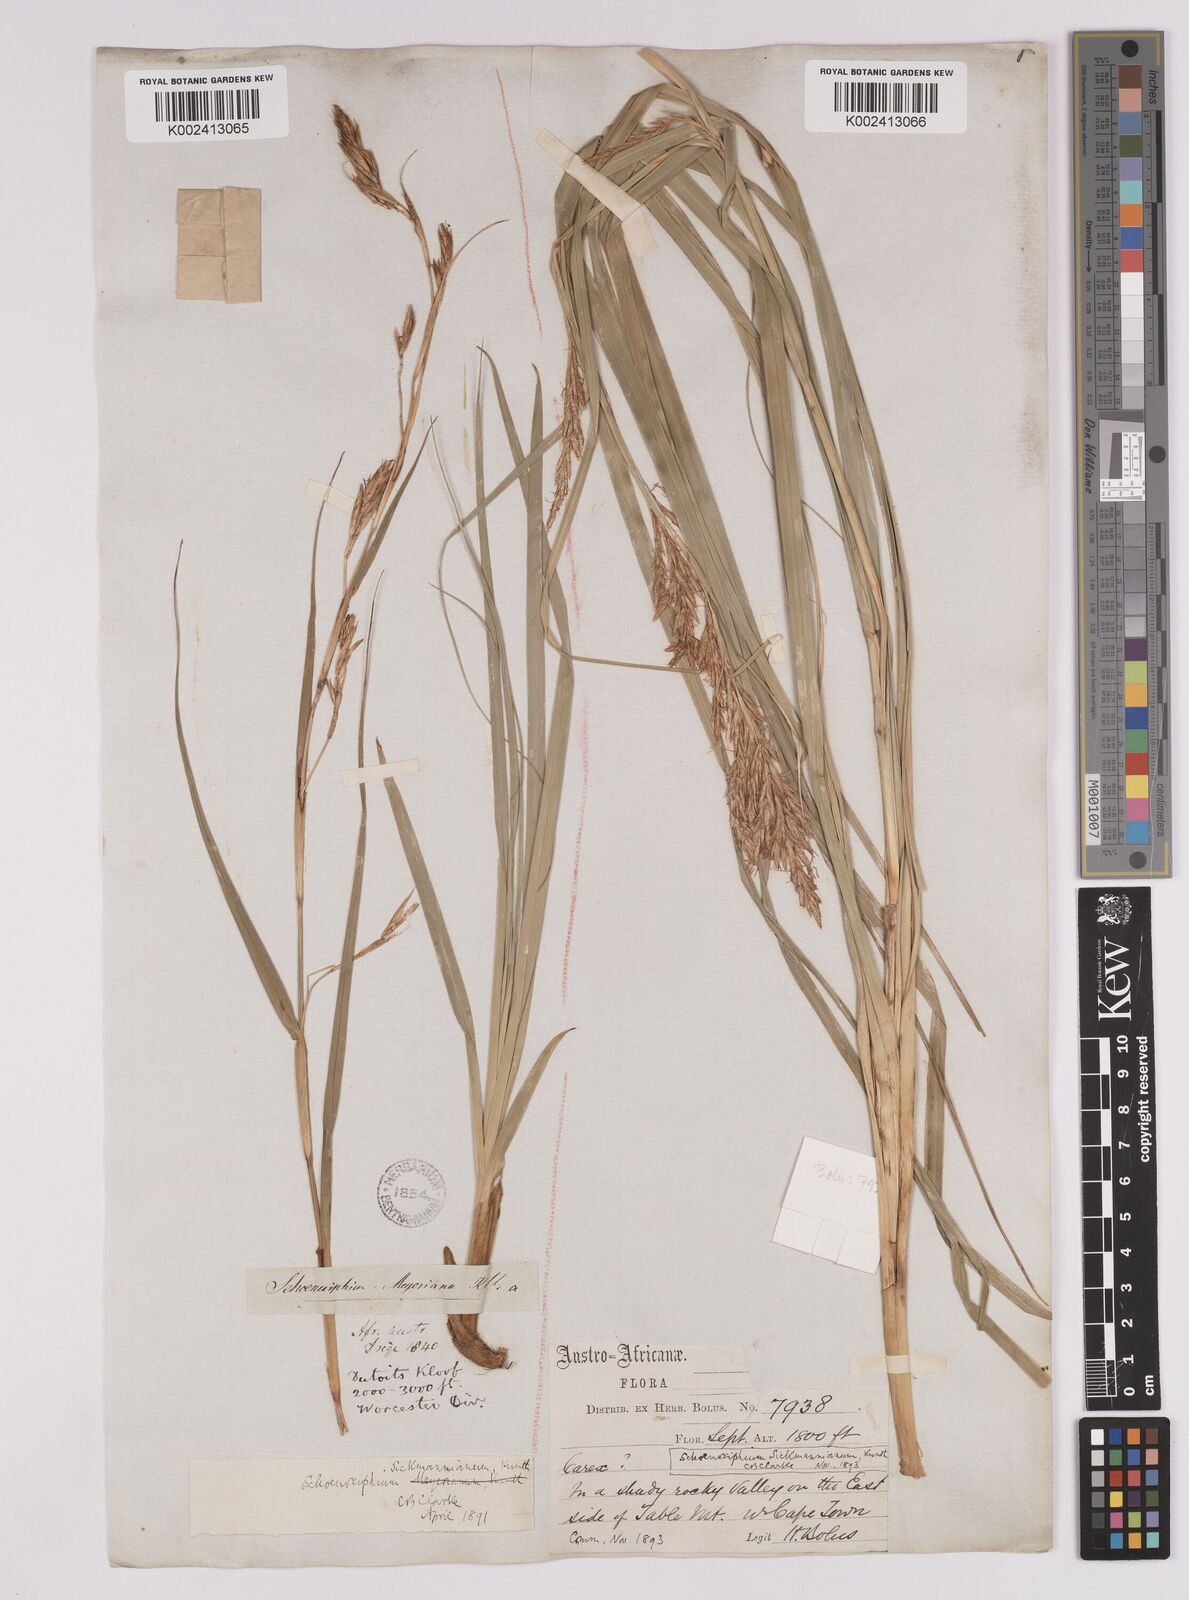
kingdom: Plantae
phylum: Tracheophyta
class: Liliopsida
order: Poales
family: Cyperaceae
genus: Carex
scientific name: Carex lancea
